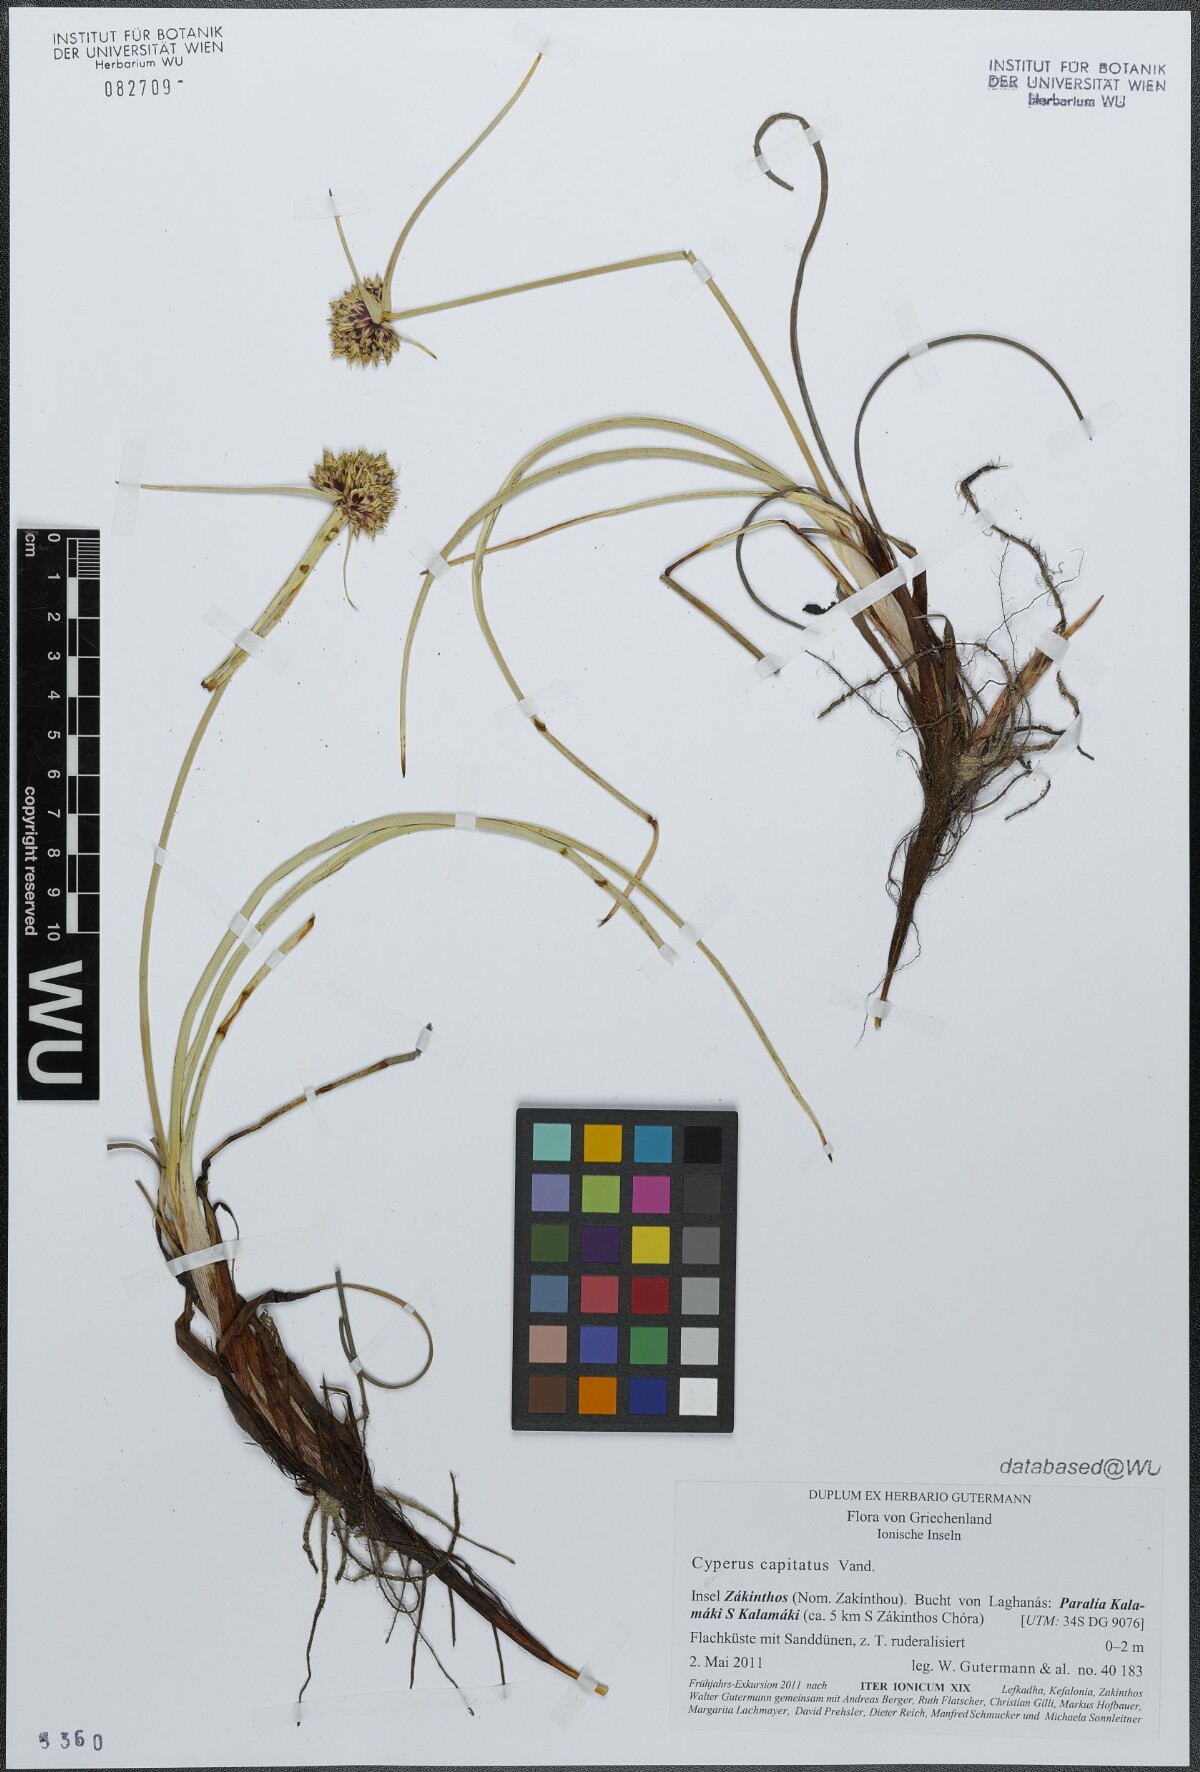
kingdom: Plantae
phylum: Tracheophyta
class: Liliopsida
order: Poales
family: Cyperaceae
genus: Cyperus
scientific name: Cyperus capitatus
